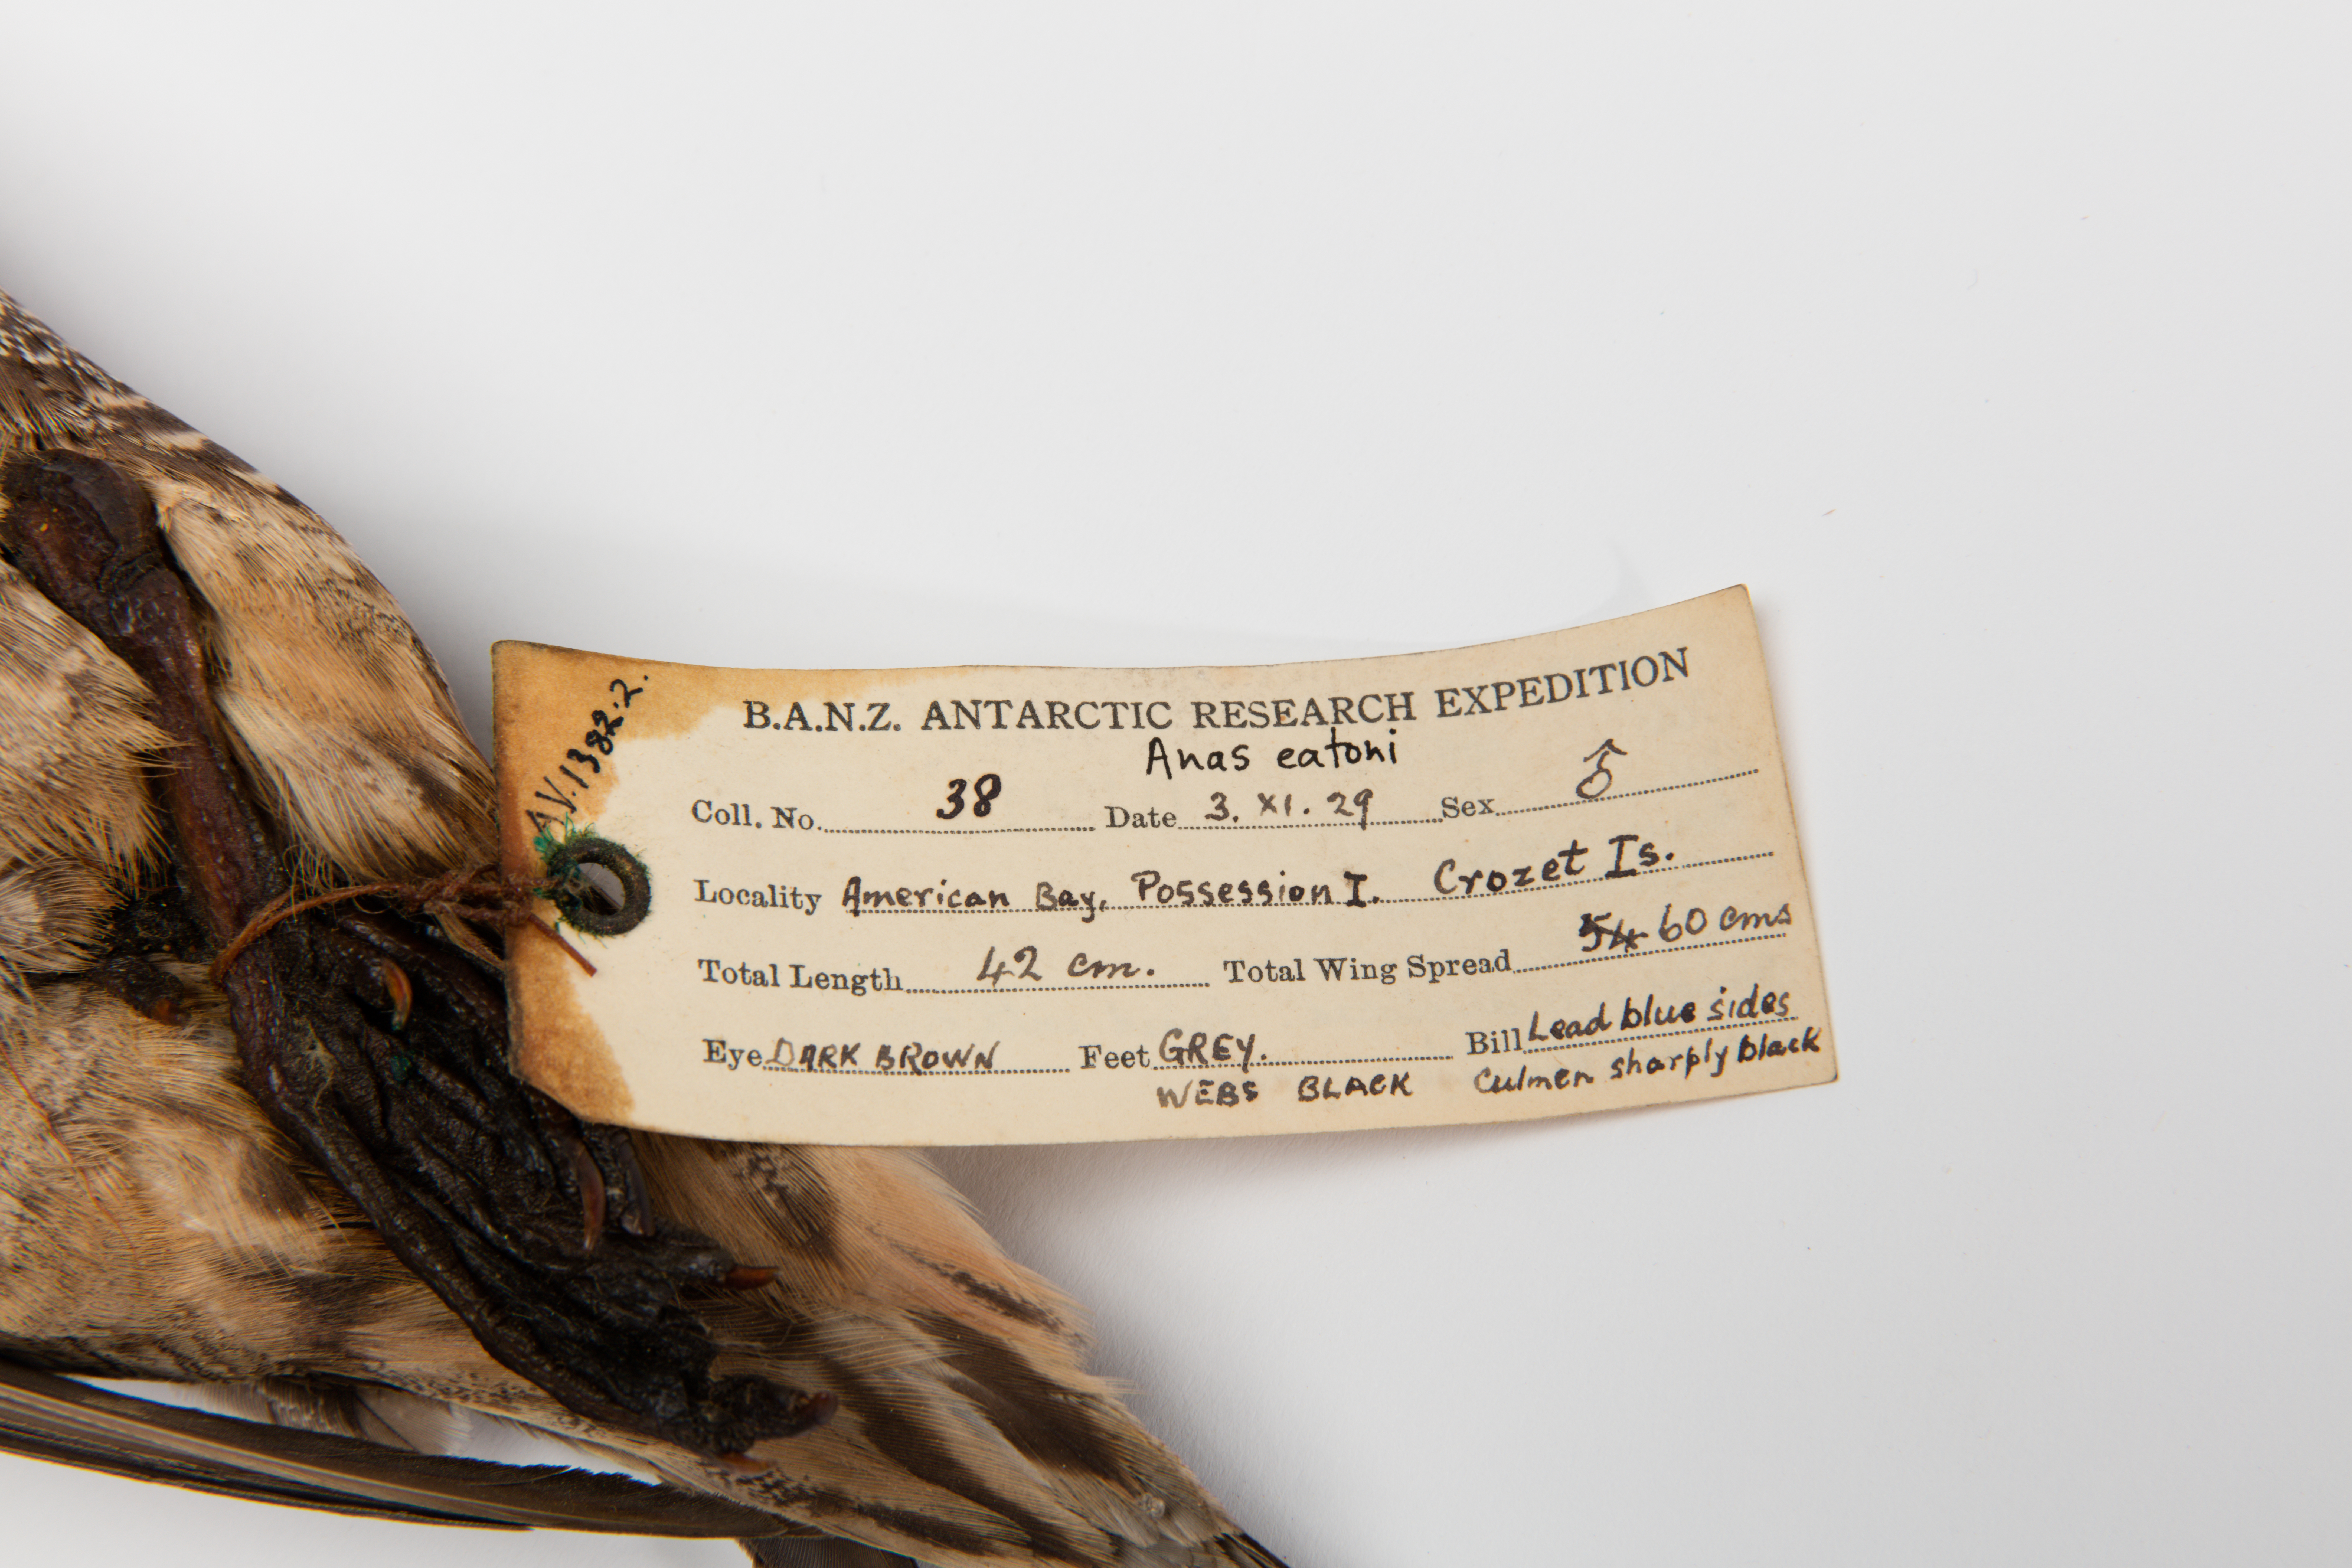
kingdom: Animalia
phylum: Chordata
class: Aves
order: Anseriformes
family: Anatidae
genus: Anas
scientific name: Anas eatoni
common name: Eaton's pintail
